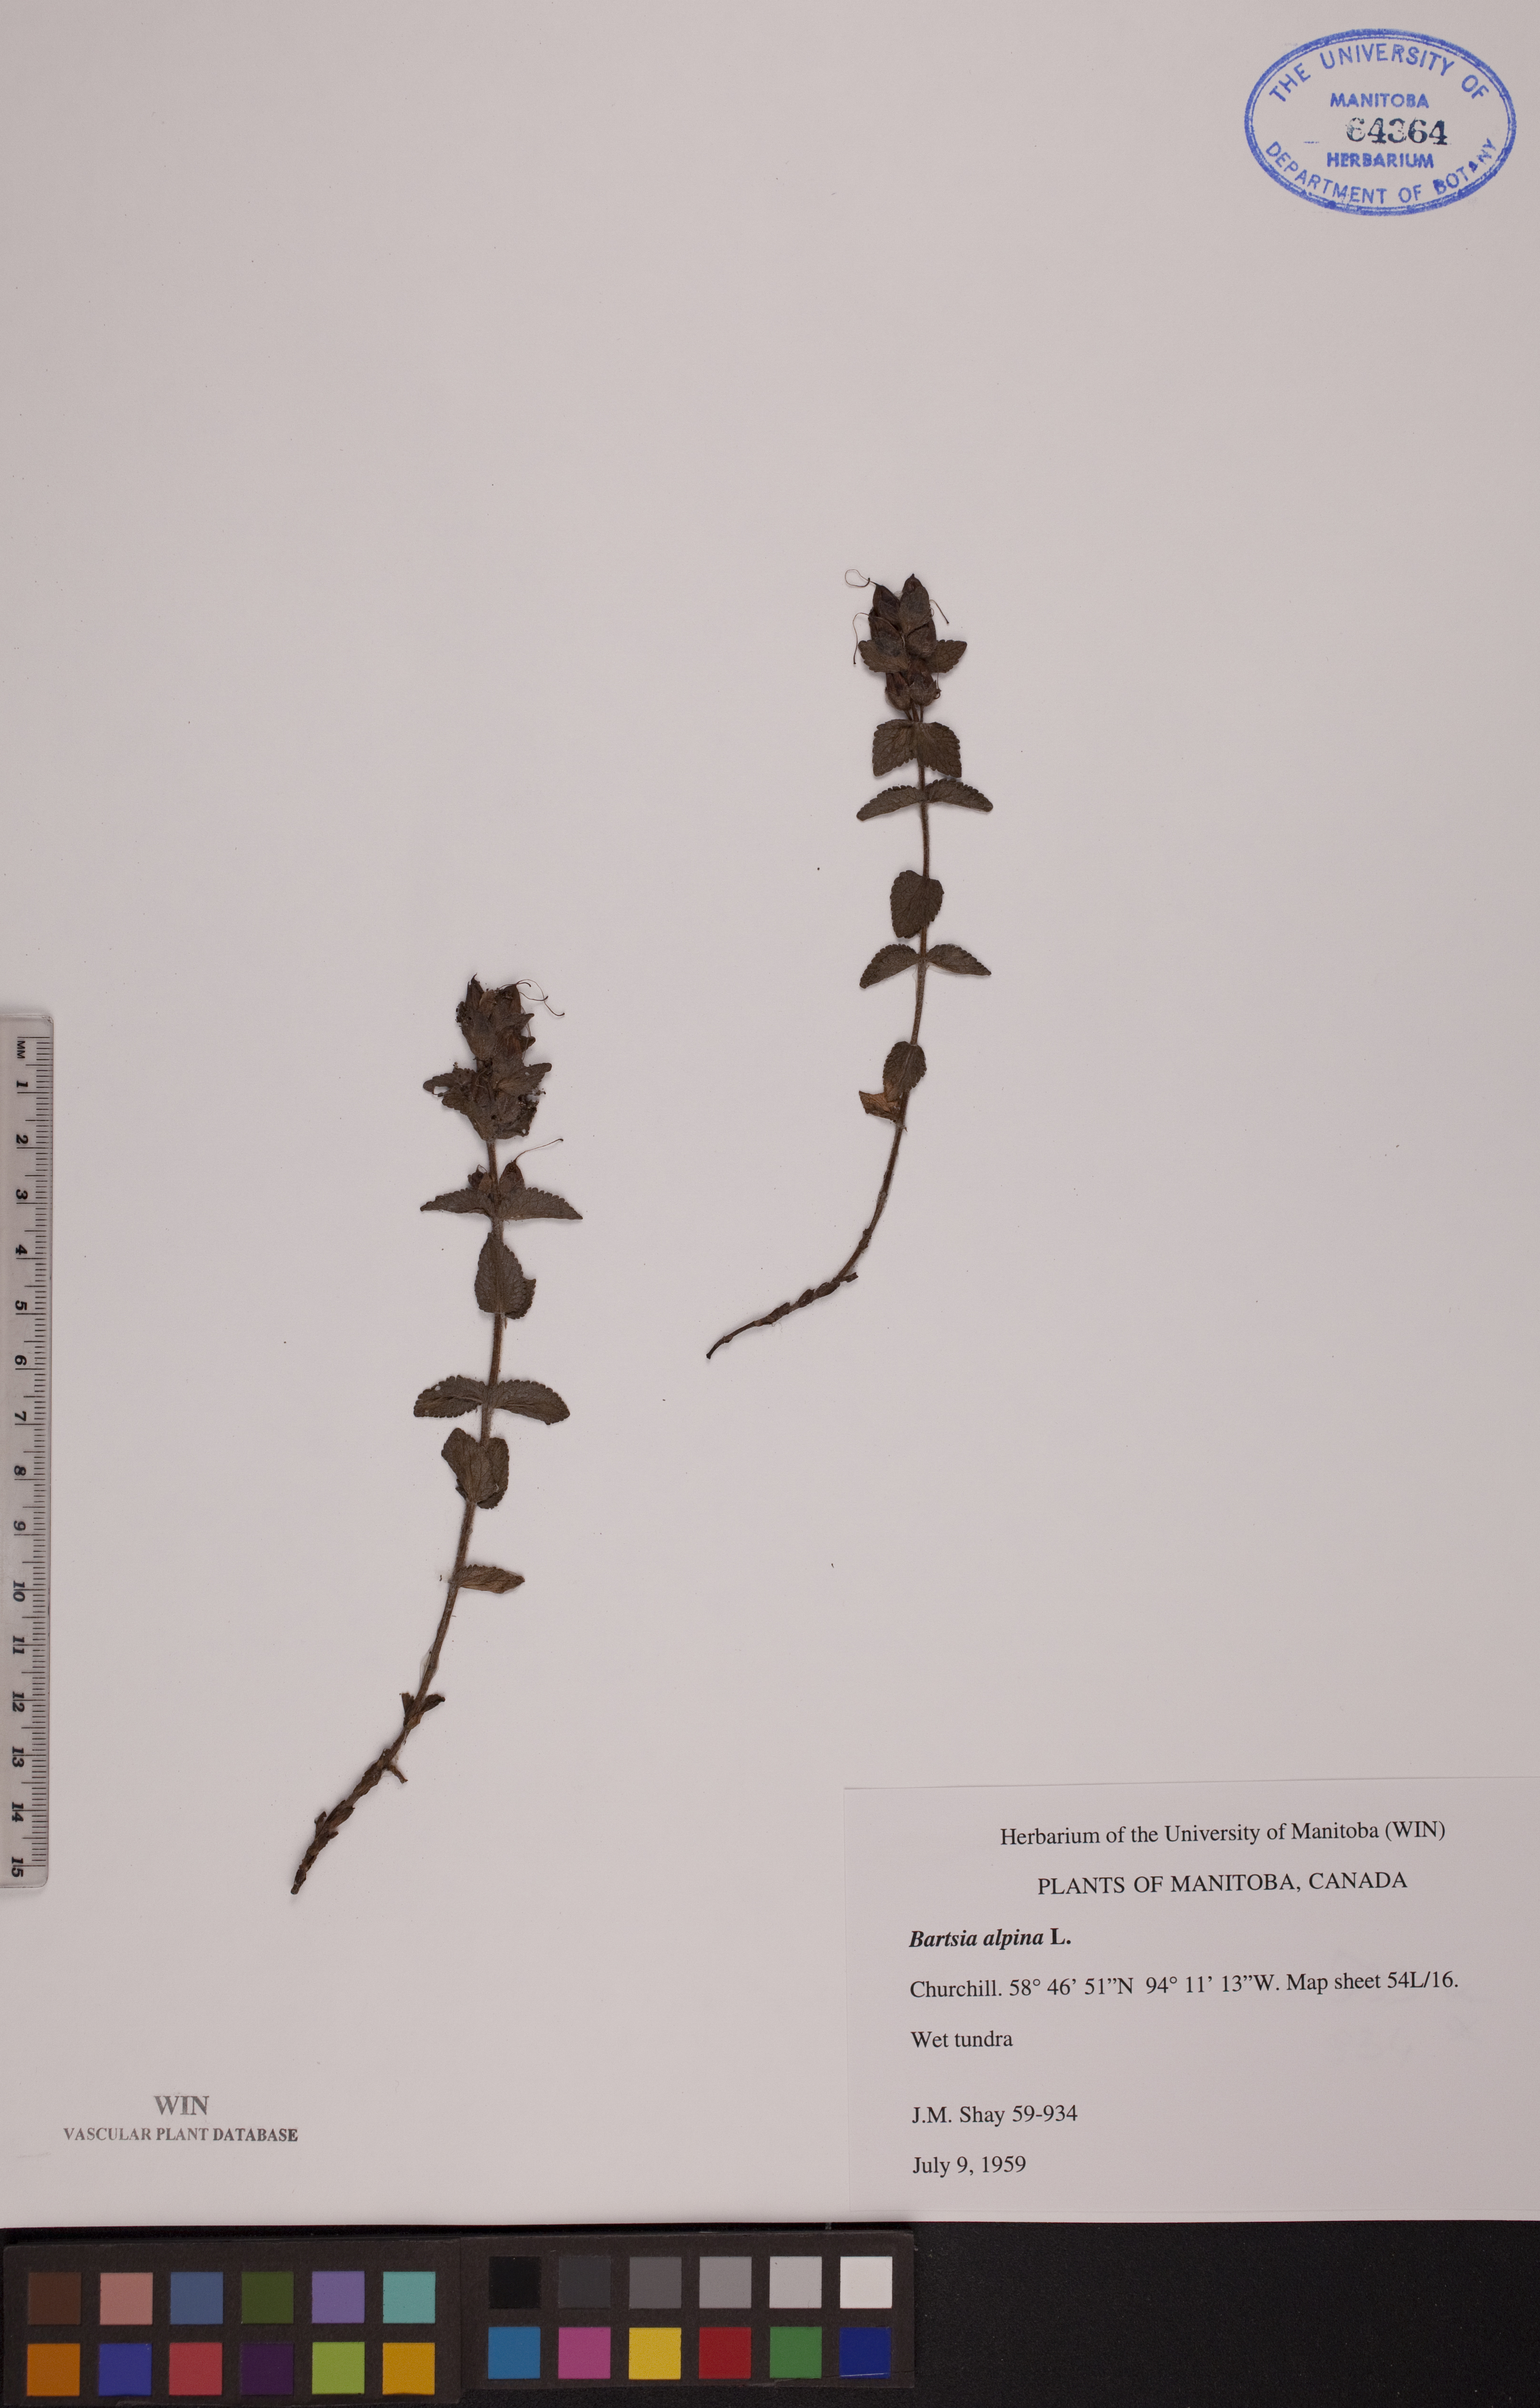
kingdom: Plantae
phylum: Tracheophyta
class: Magnoliopsida
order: Lamiales
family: Orobanchaceae
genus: Bartsia
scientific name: Bartsia alpina
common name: Alpine bartsia
